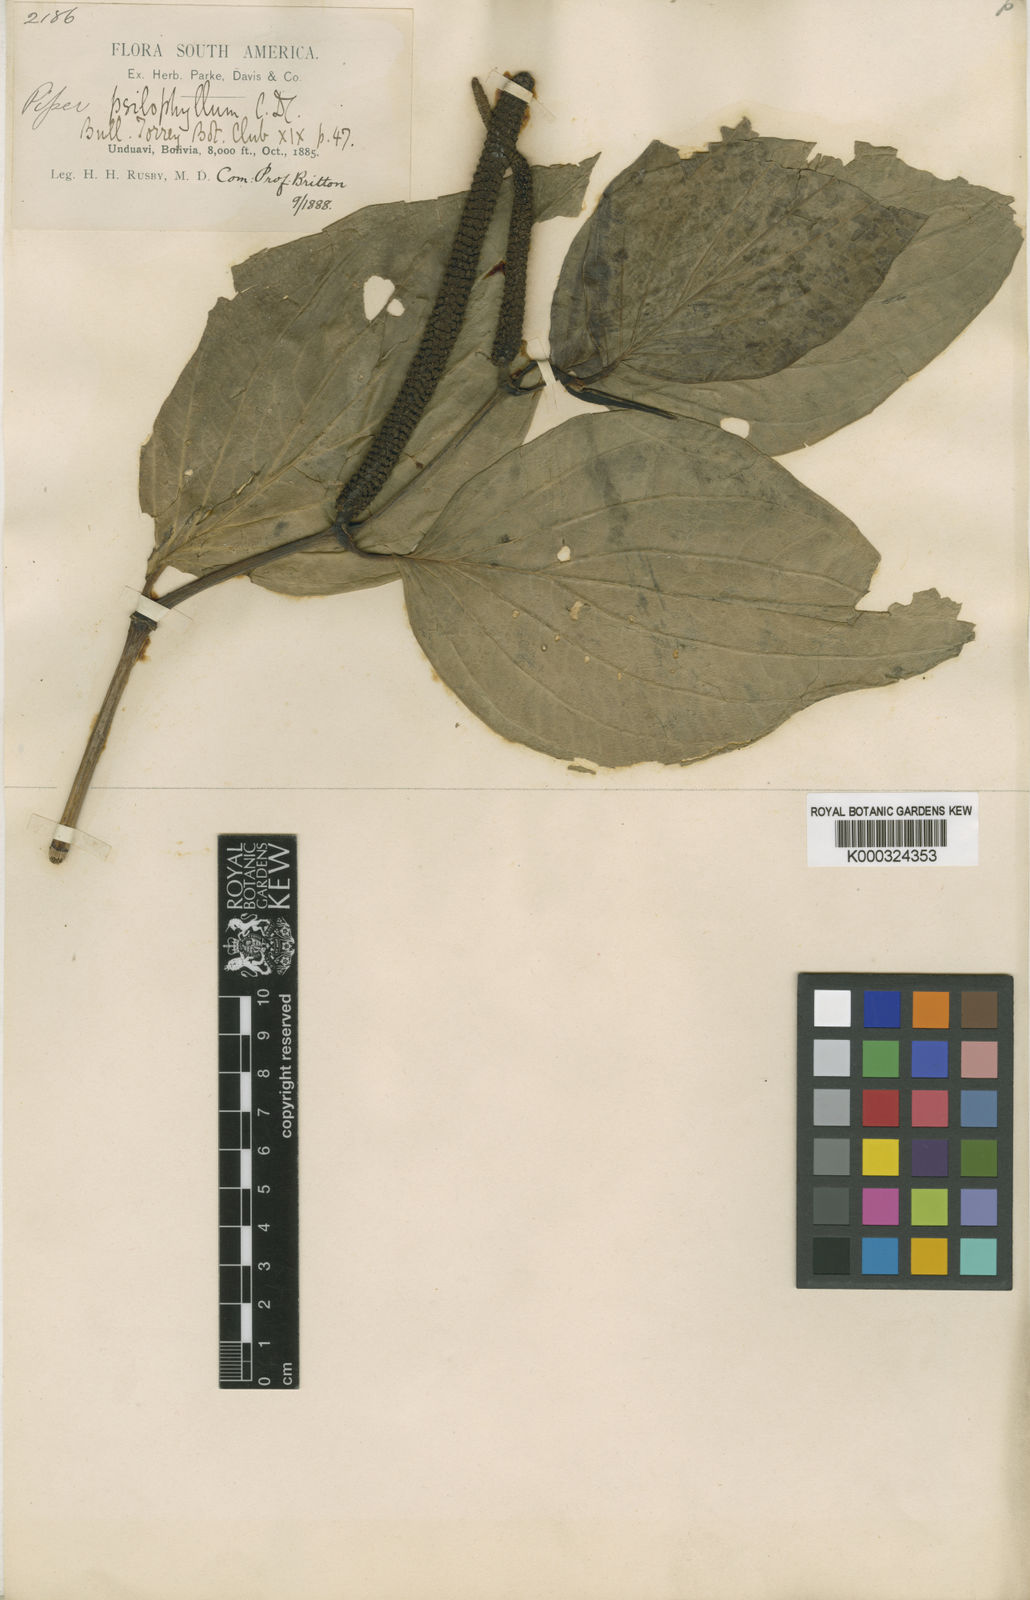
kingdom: Plantae
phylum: Tracheophyta
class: Magnoliopsida
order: Piperales
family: Piperaceae
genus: Piper
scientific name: Piper psilophyllum
